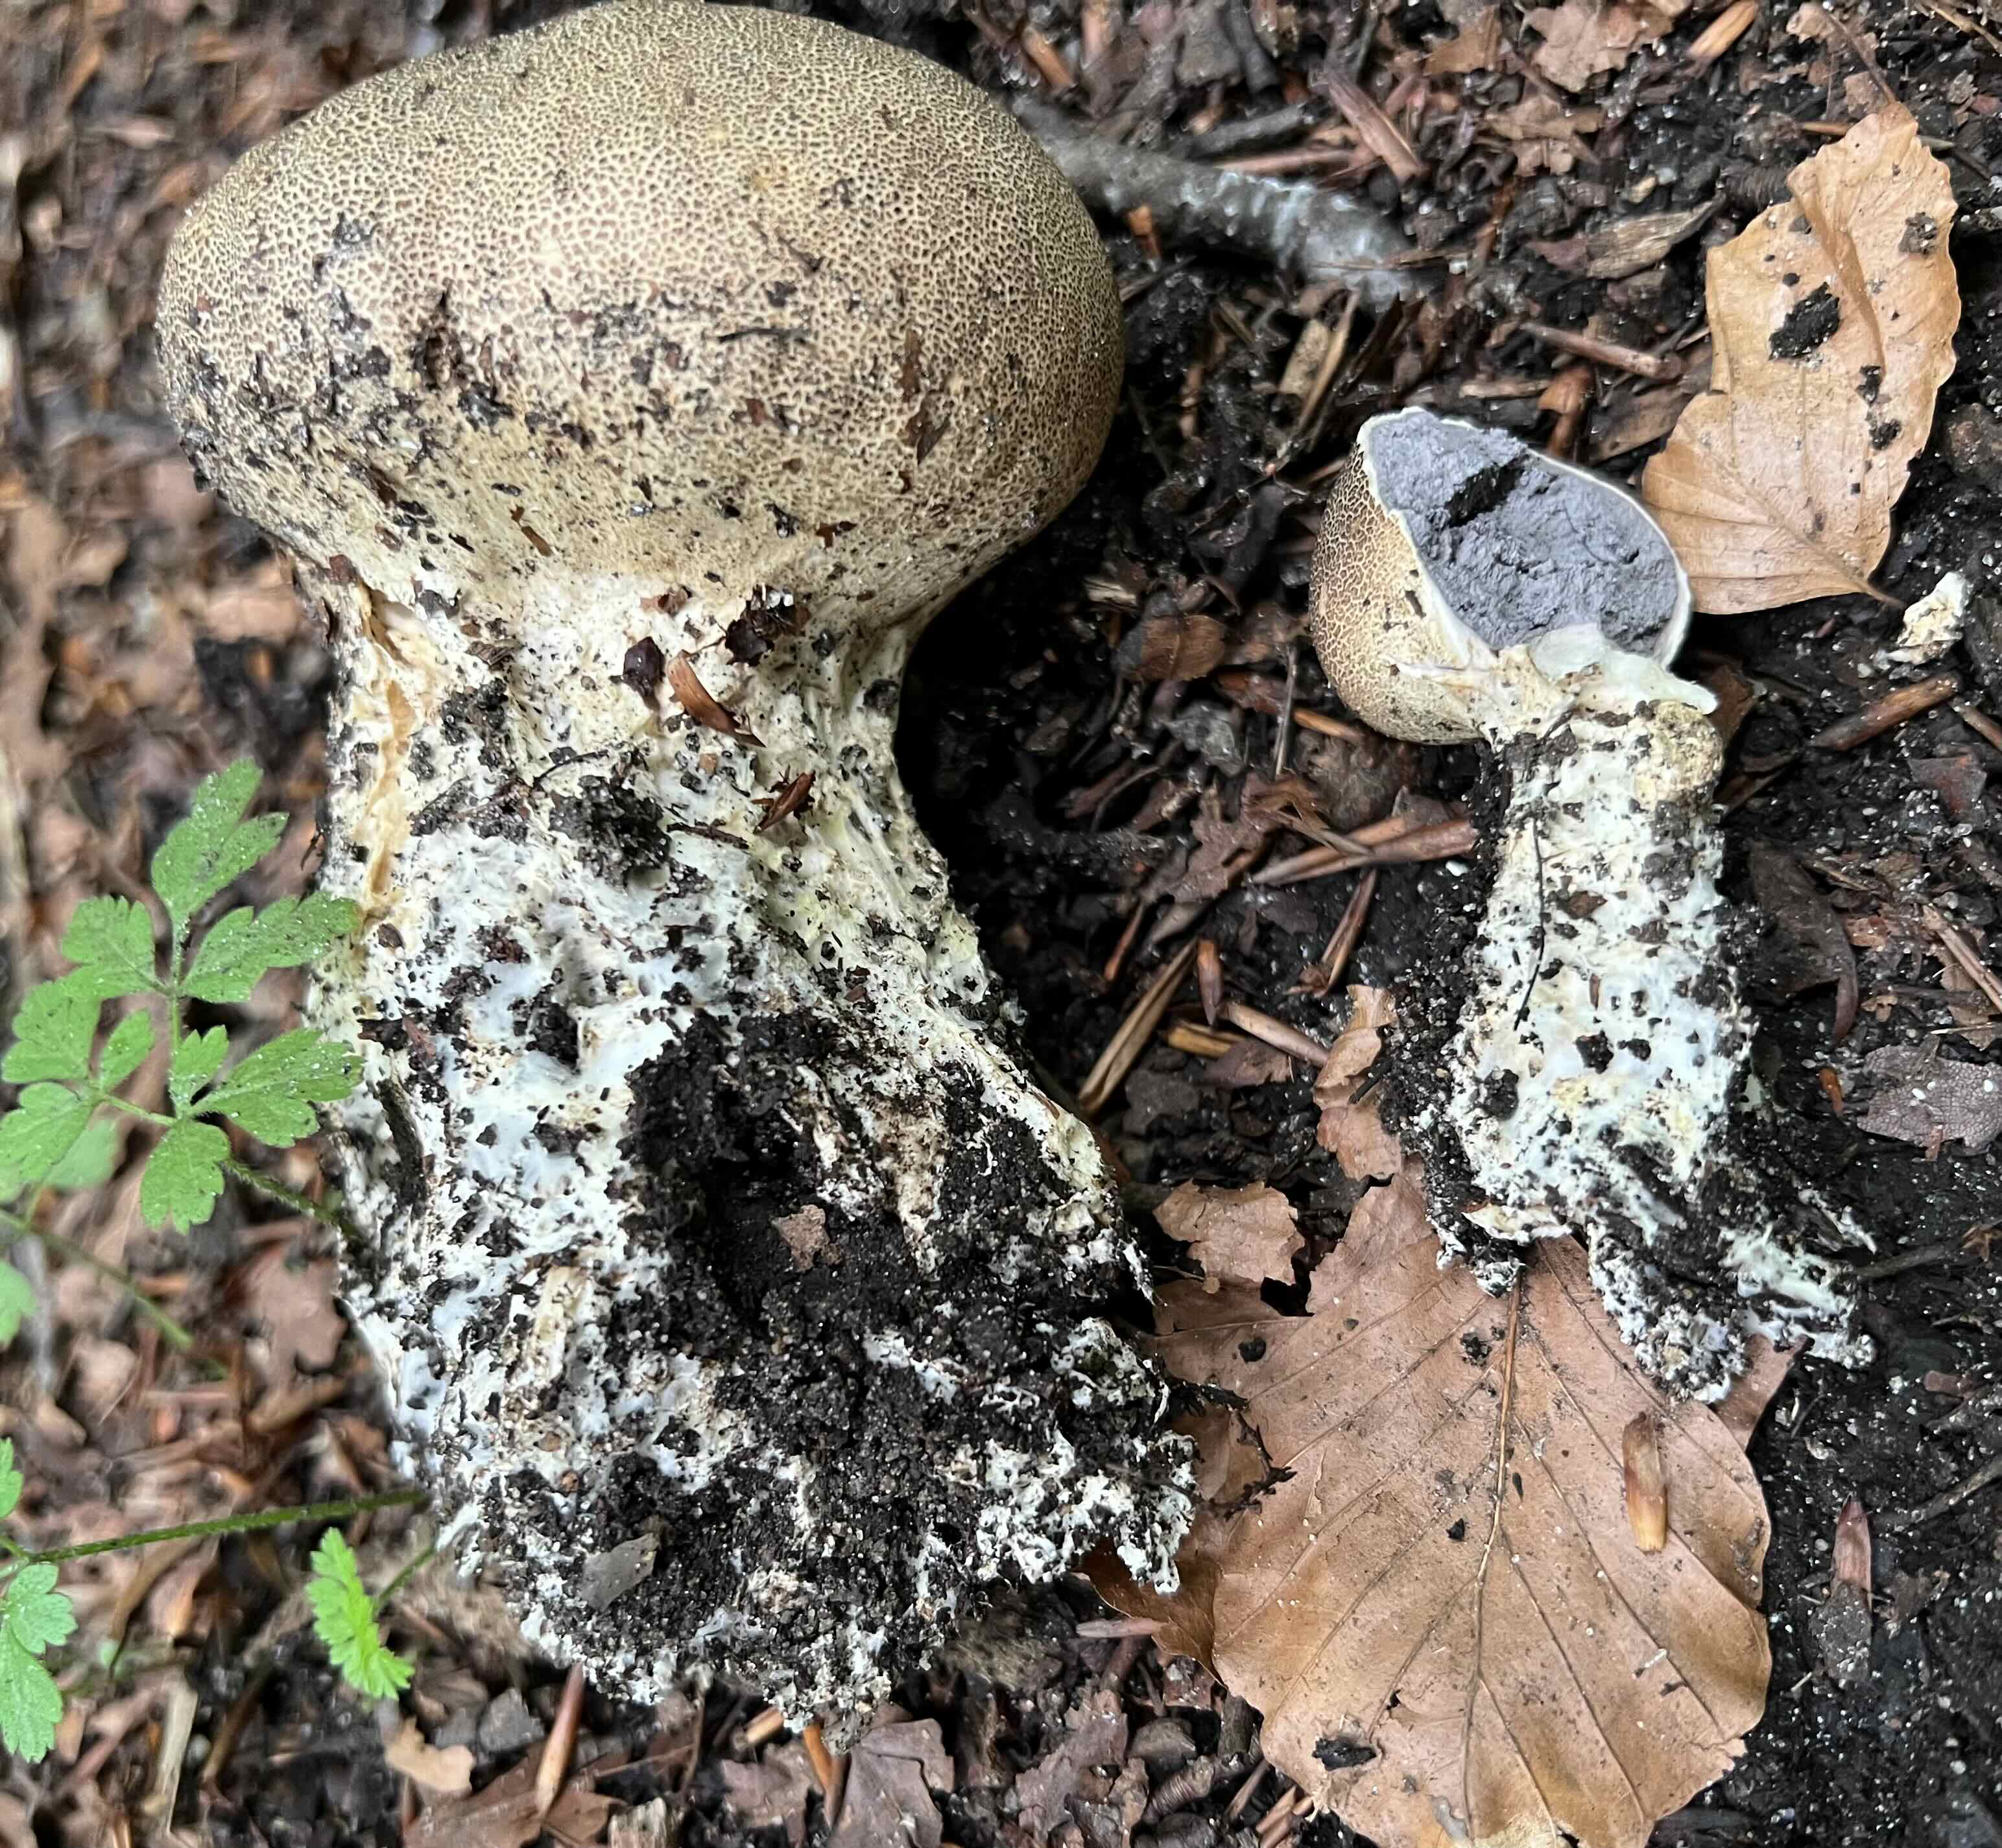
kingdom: Fungi
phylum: Basidiomycota
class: Agaricomycetes
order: Boletales
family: Sclerodermataceae
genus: Scleroderma
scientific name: Scleroderma verrucosum
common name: stilket bruskbold
